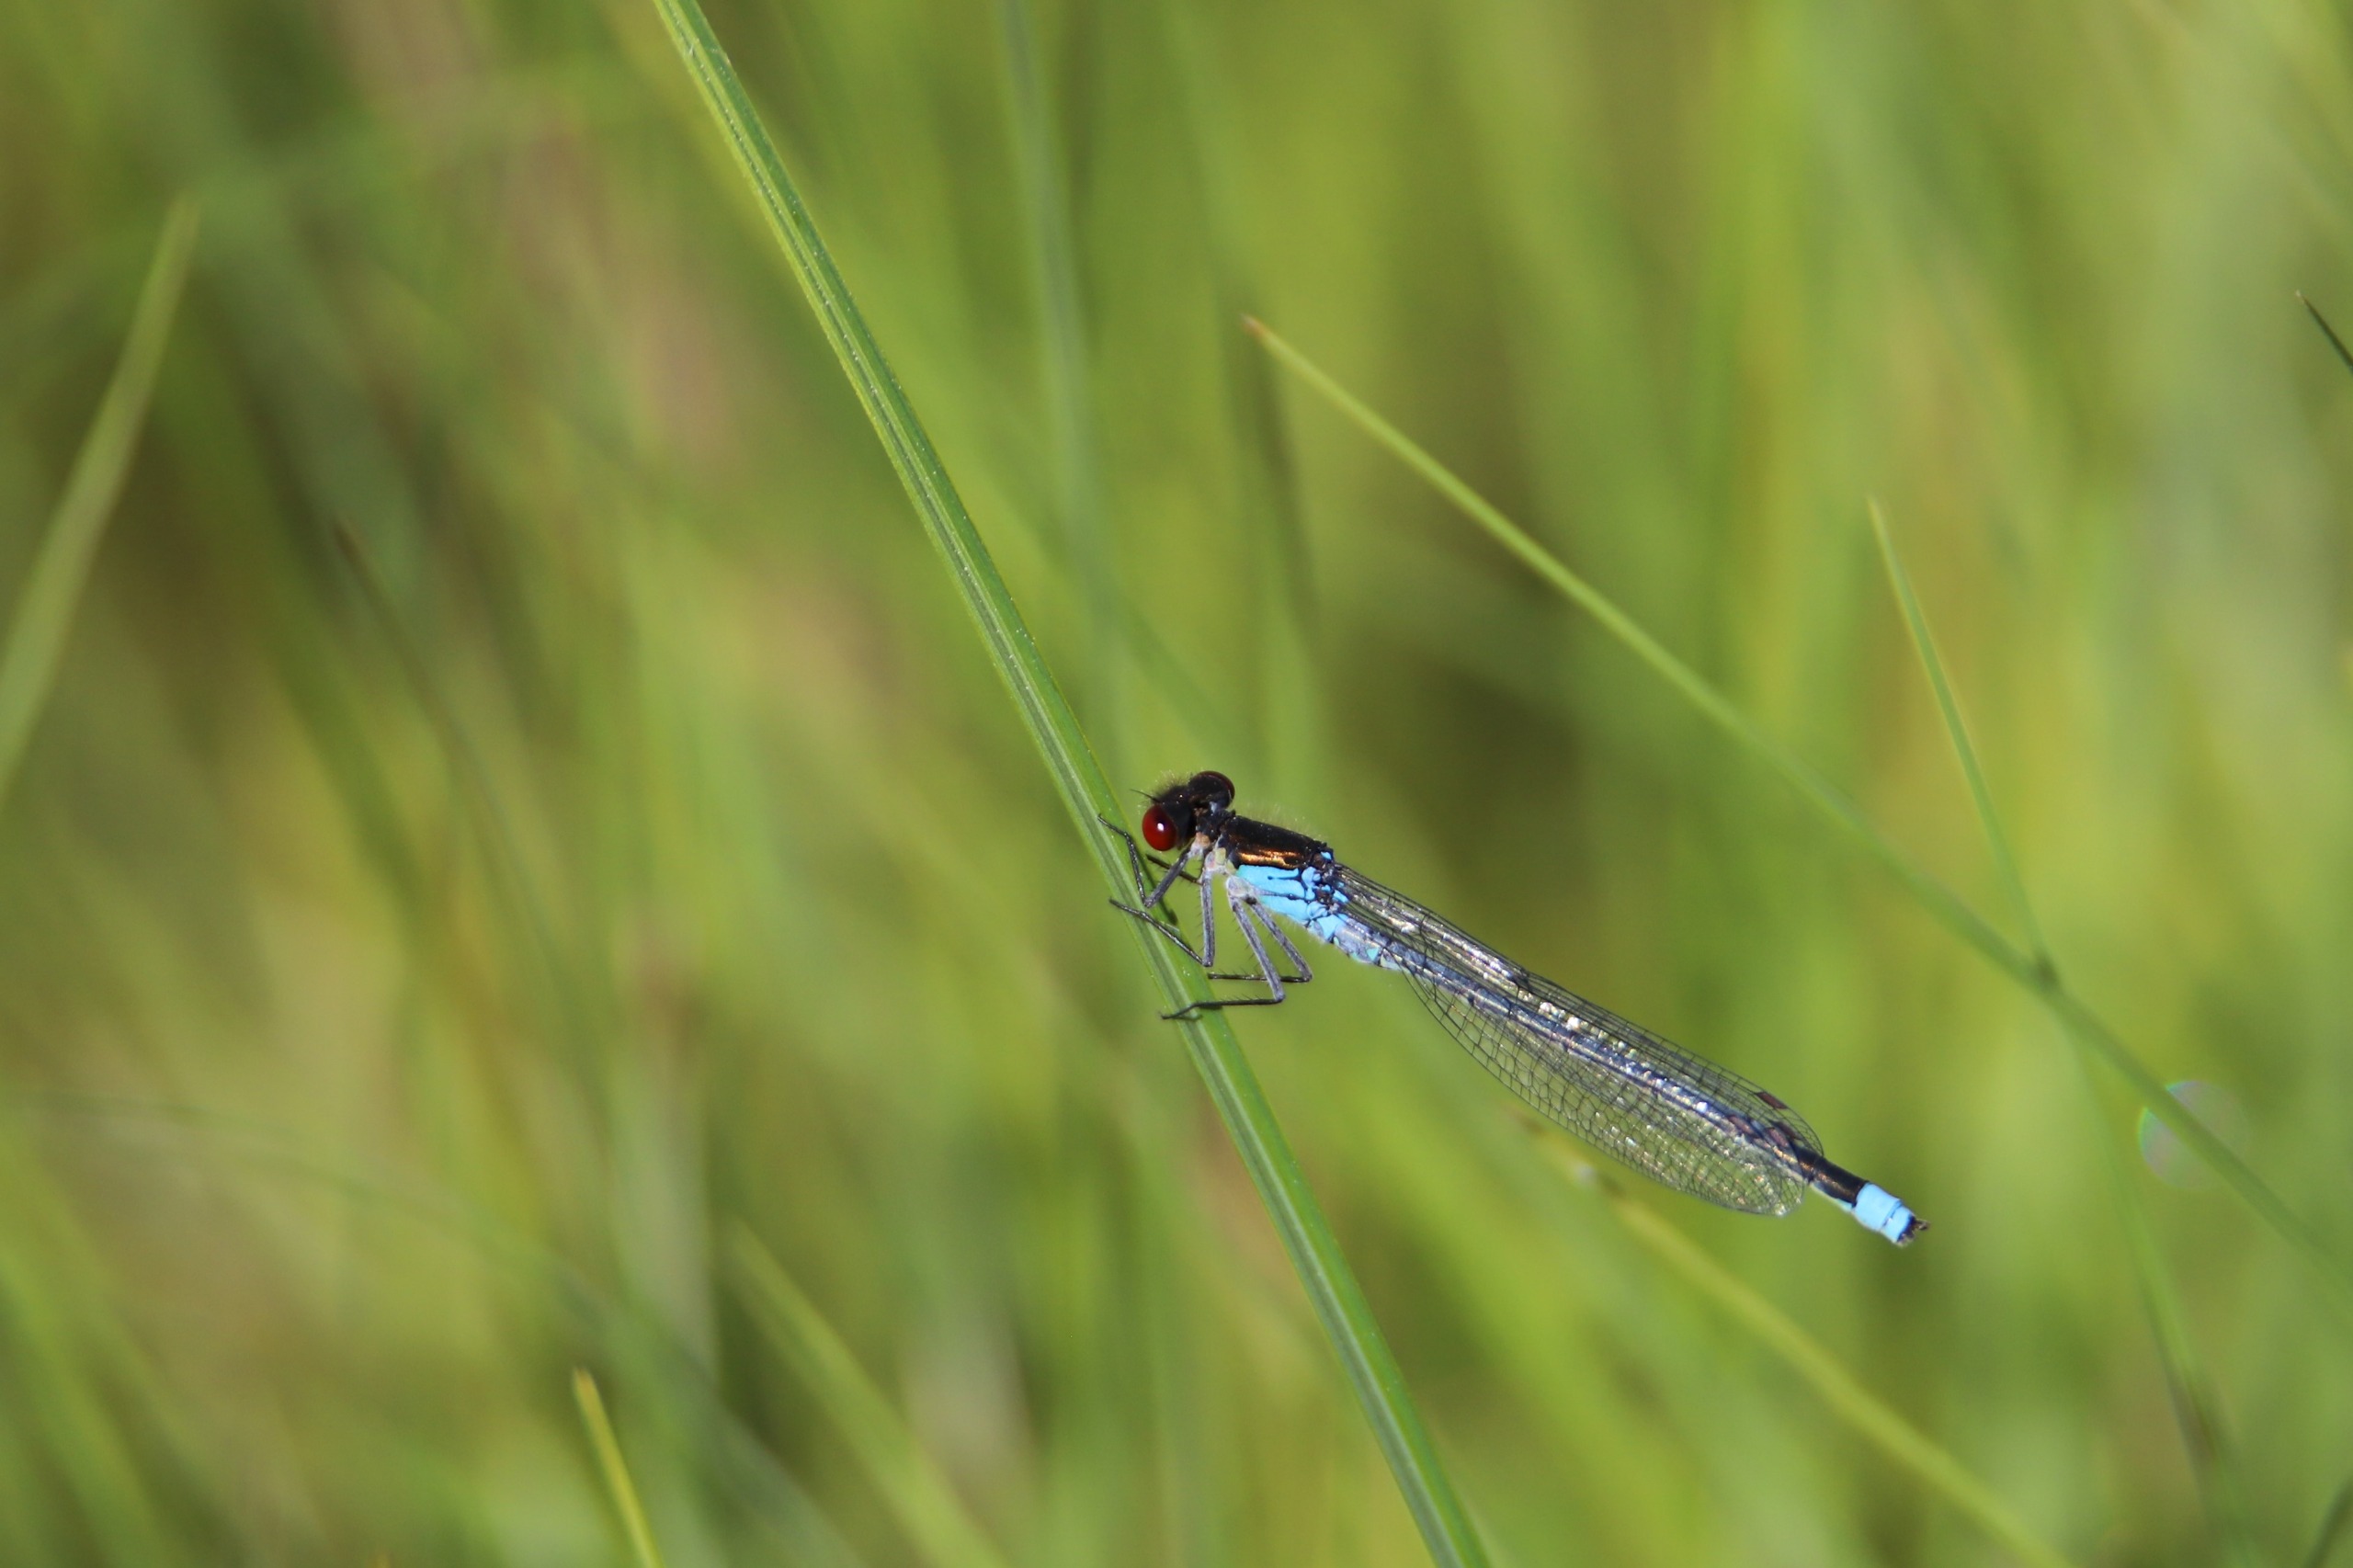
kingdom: Animalia
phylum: Arthropoda
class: Insecta
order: Odonata
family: Coenagrionidae
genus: Erythromma
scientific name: Erythromma najas
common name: Rødøjet vandnymfe
